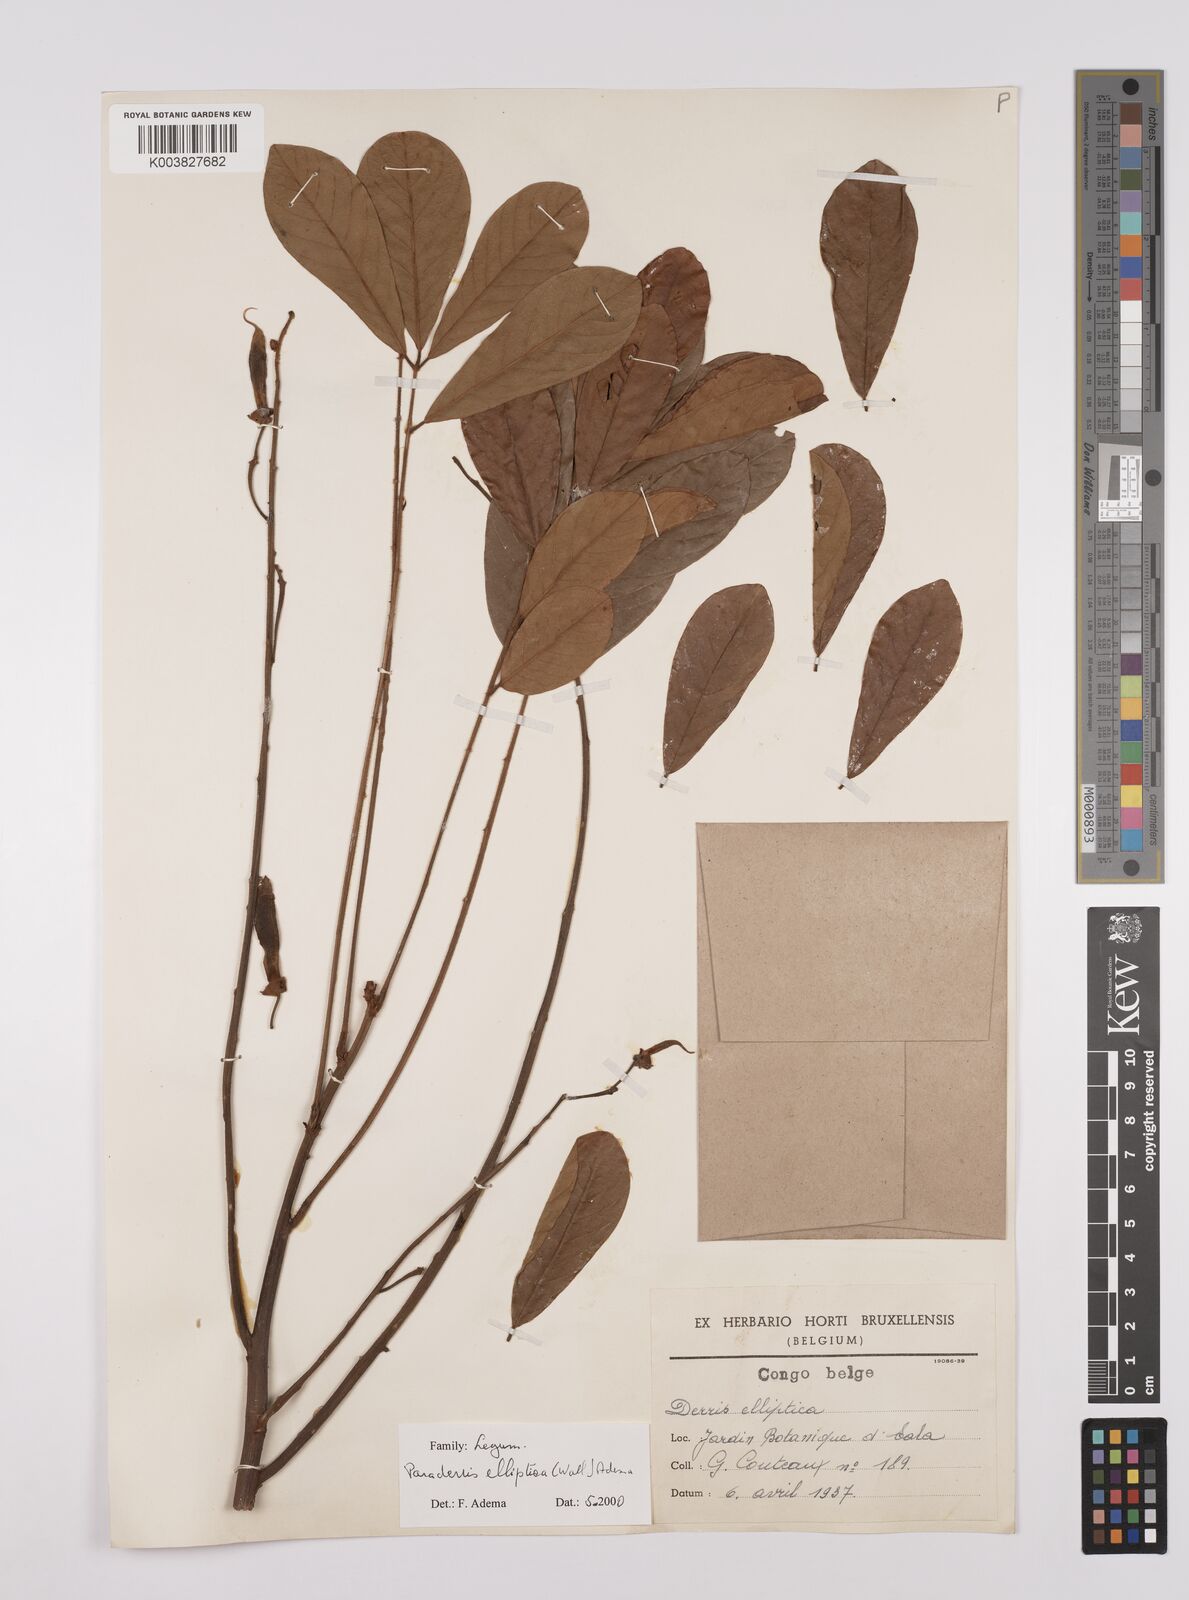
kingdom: Plantae
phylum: Tracheophyta
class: Magnoliopsida
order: Fabales
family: Fabaceae
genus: Derris
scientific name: Derris elliptica
